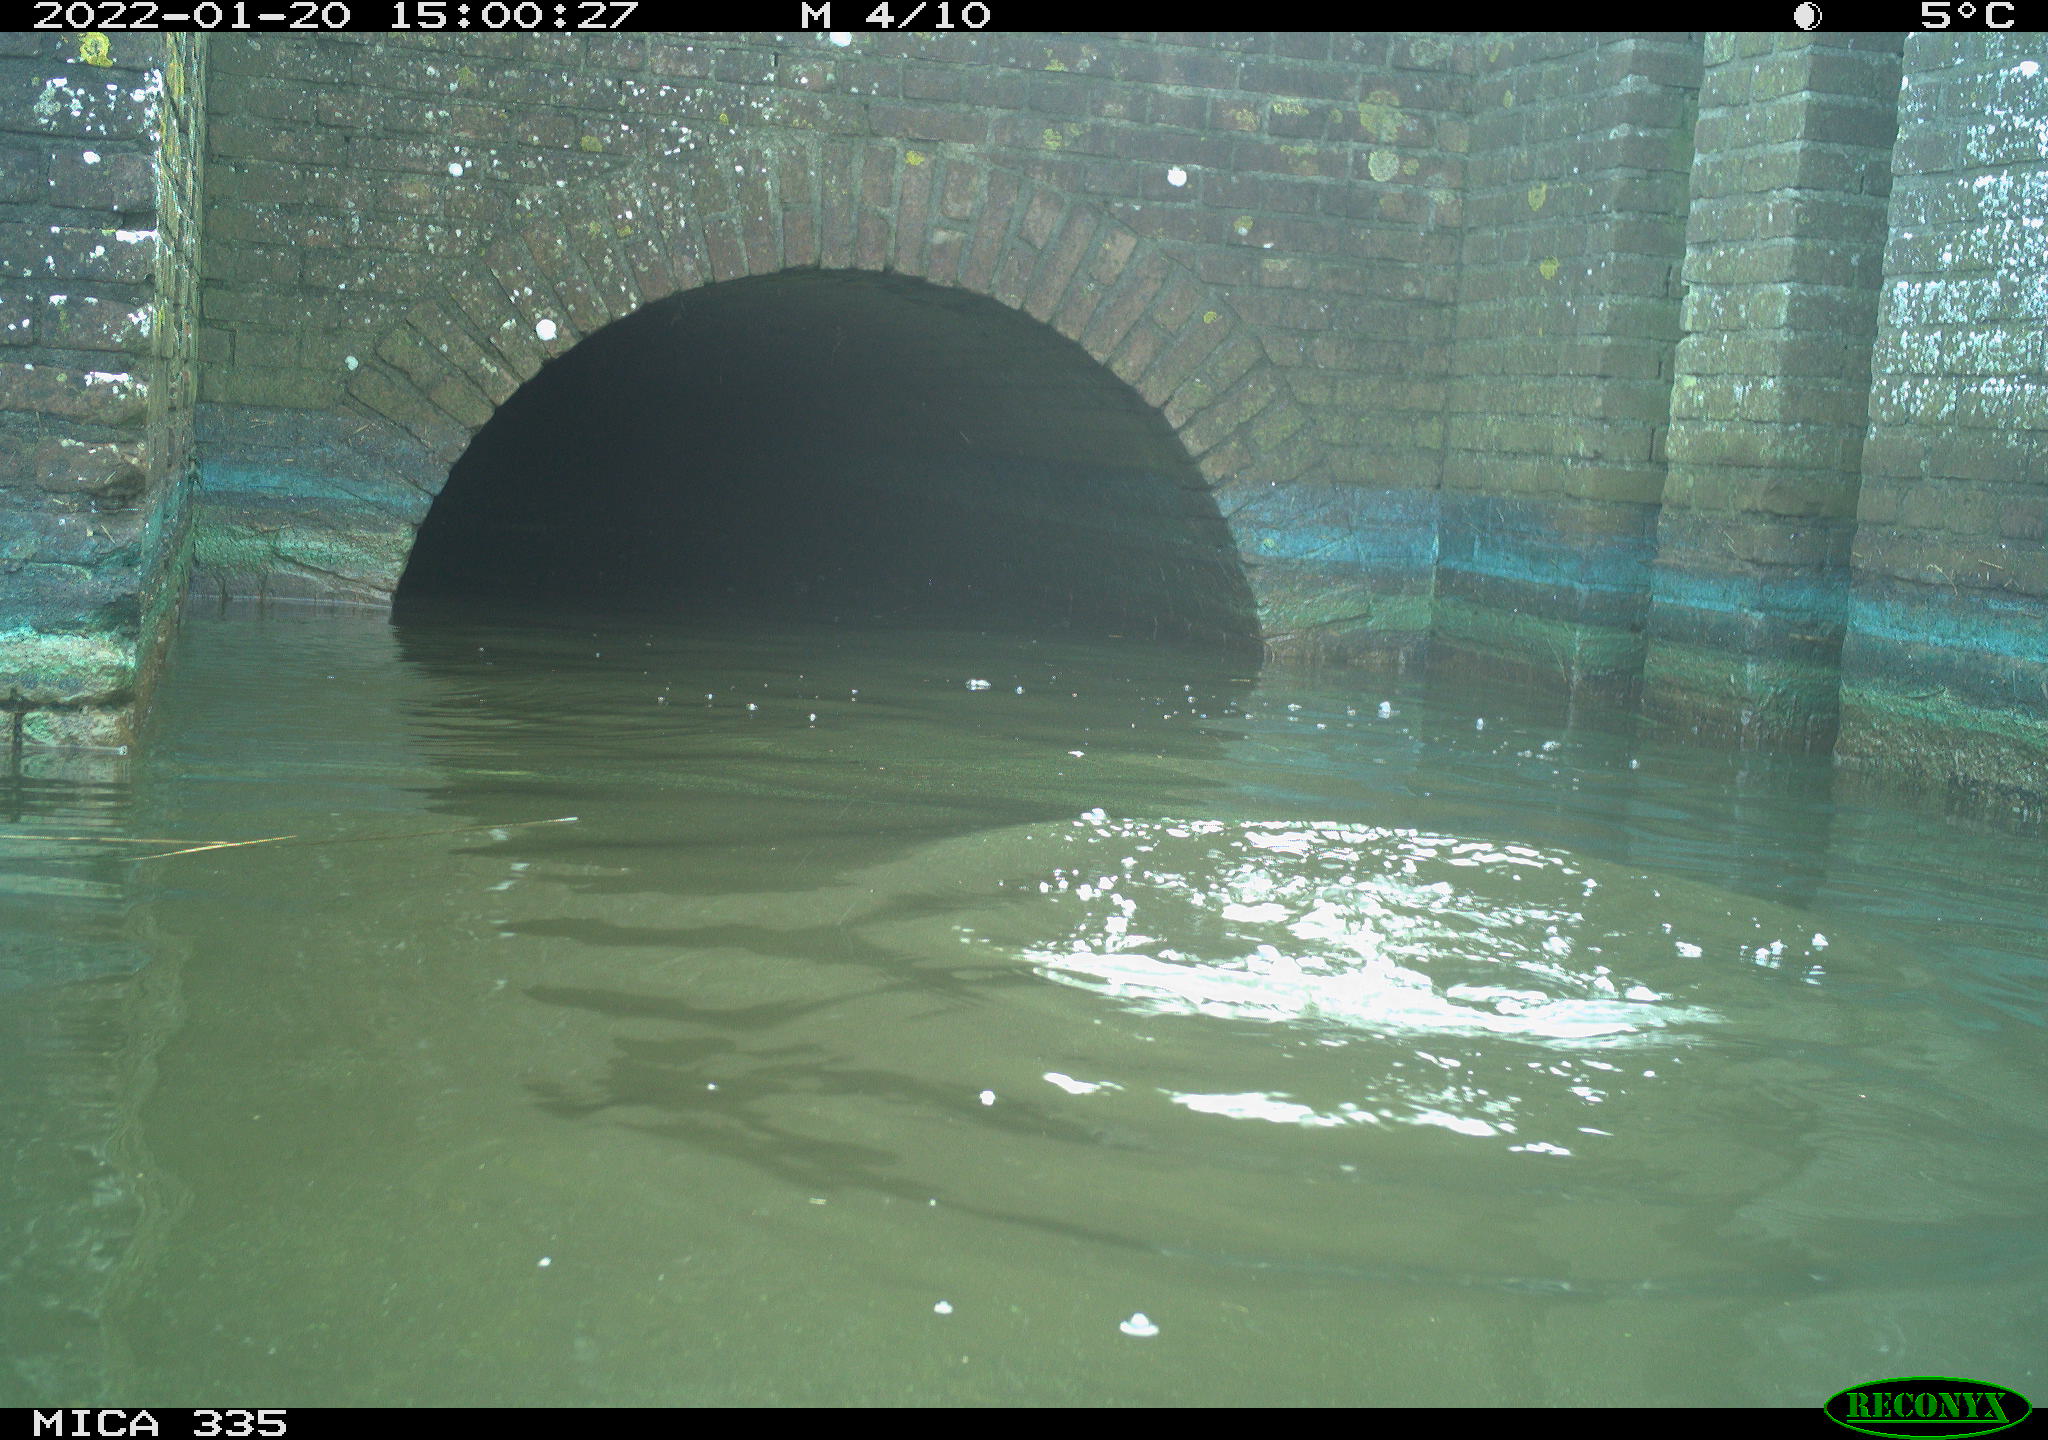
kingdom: Animalia
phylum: Chordata
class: Aves
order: Suliformes
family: Phalacrocoracidae
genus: Phalacrocorax
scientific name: Phalacrocorax carbo
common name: Great cormorant
